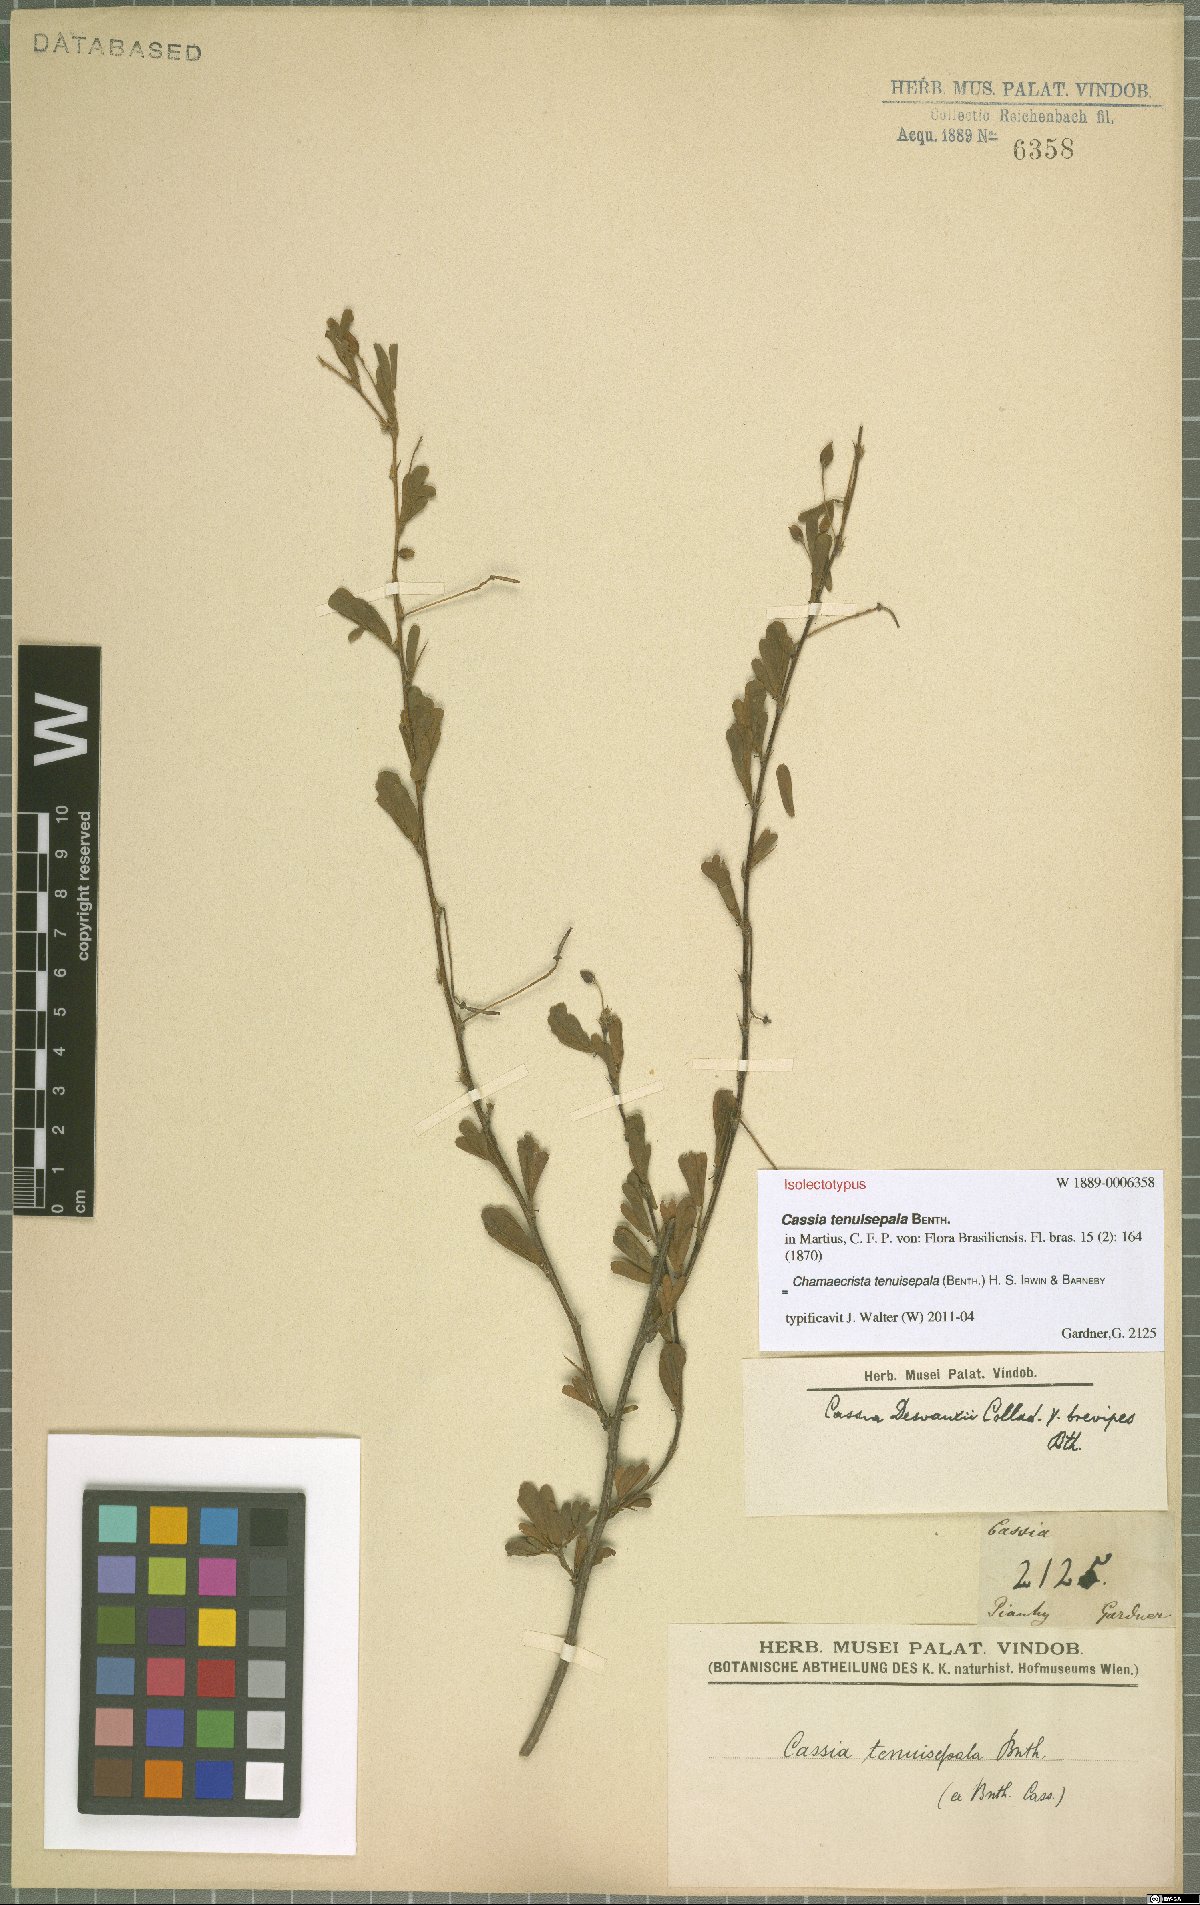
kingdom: Plantae
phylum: Tracheophyta
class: Magnoliopsida
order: Fabales
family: Fabaceae
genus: Chamaecrista
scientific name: Chamaecrista tenuisepala
